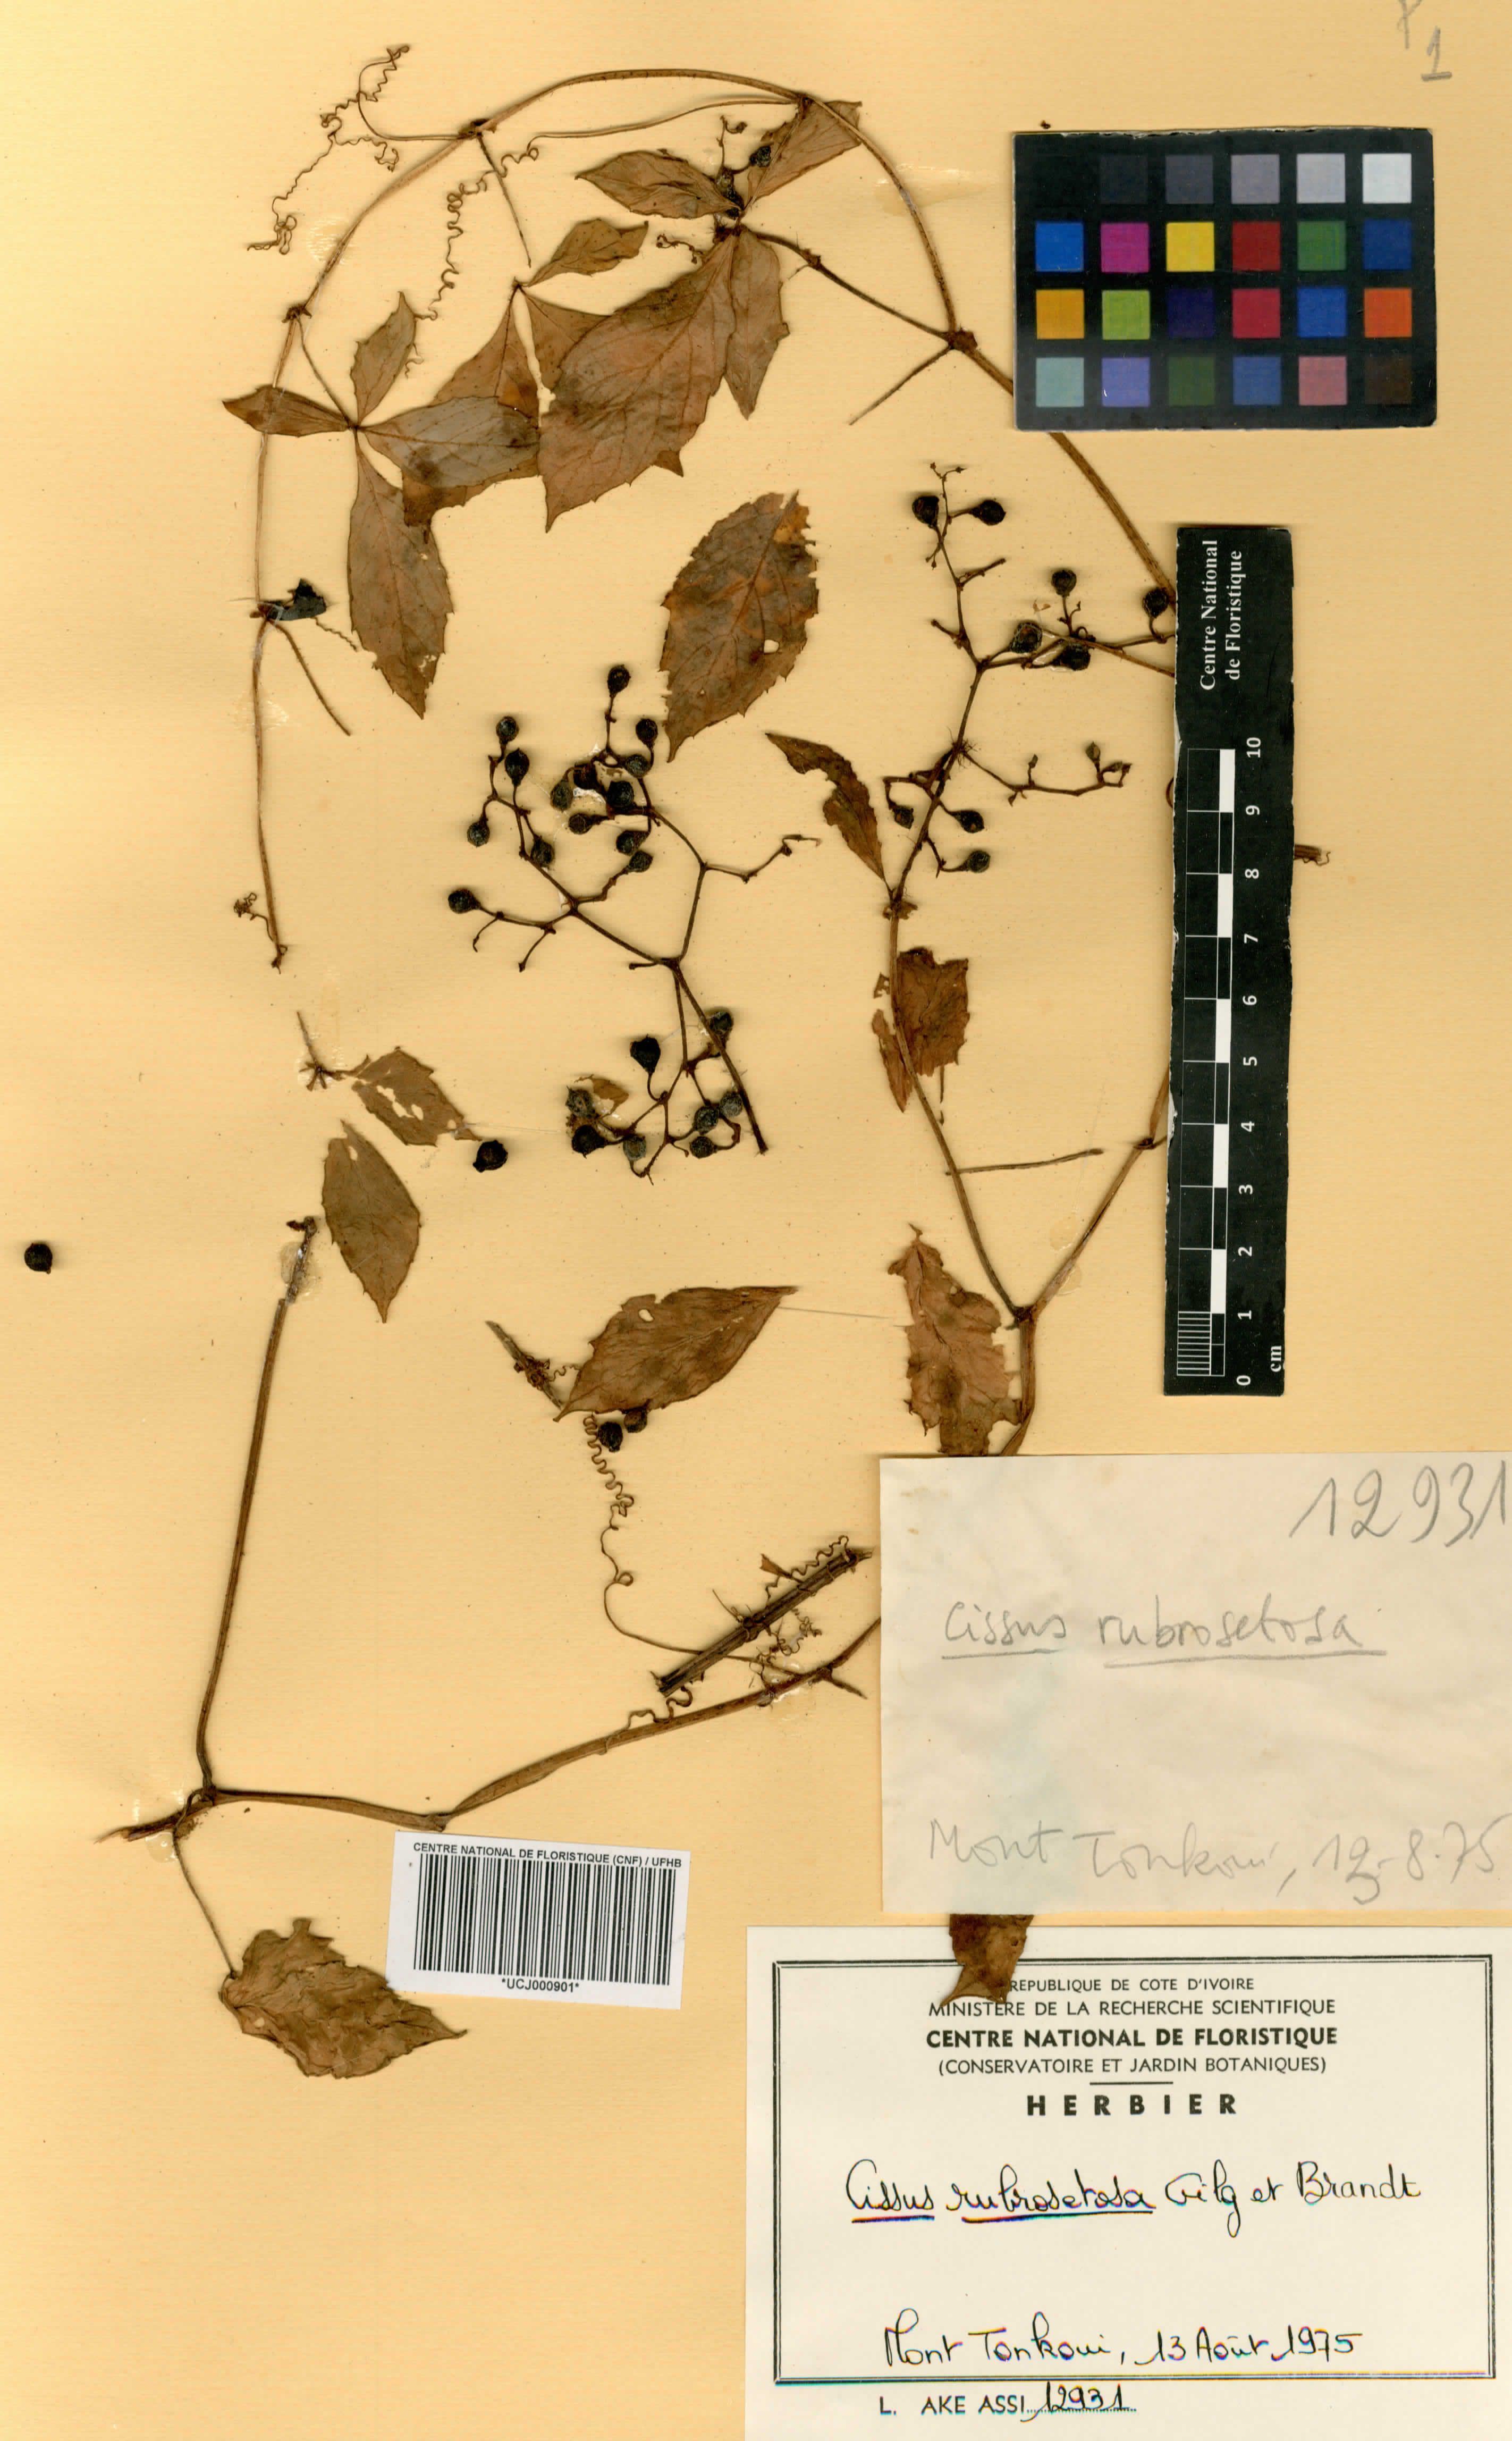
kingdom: Plantae
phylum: Tracheophyta
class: Magnoliopsida
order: Vitales
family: Vitaceae
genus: Cyphostemma
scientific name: Cyphostemma rubrosetosum
